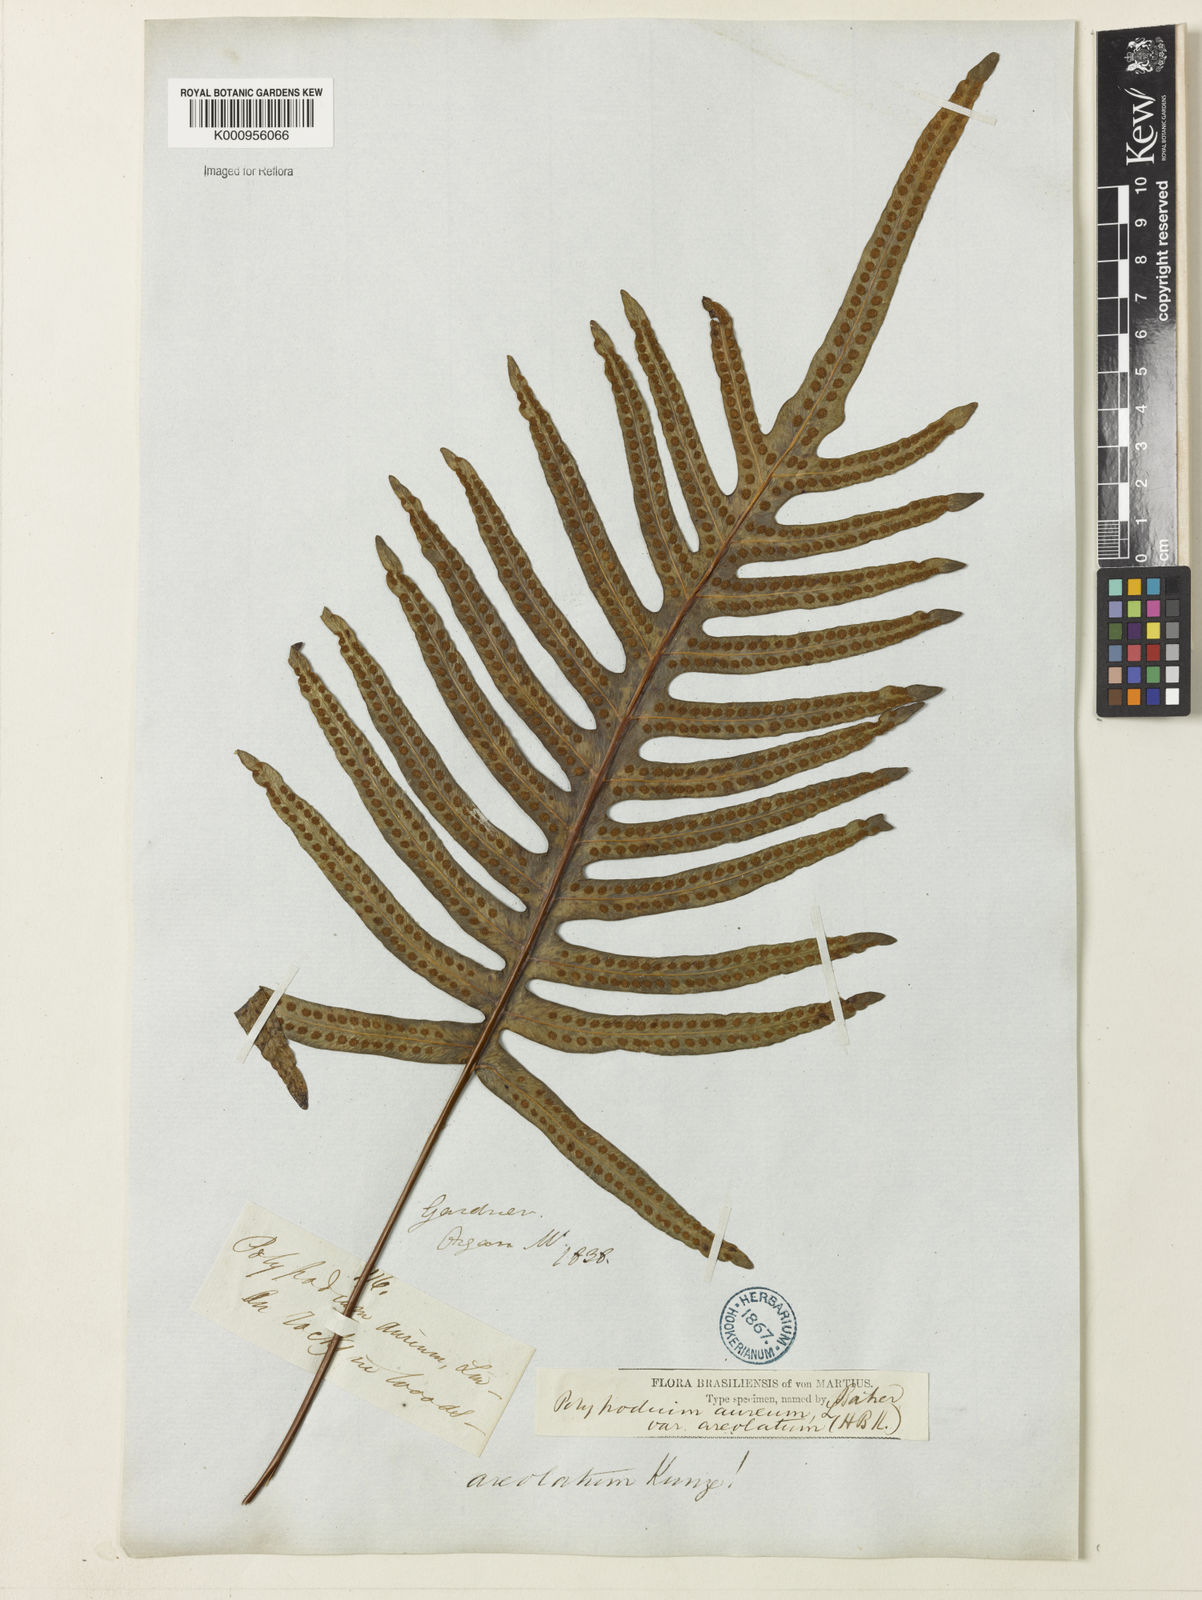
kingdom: Plantae
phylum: Tracheophyta
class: Polypodiopsida
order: Polypodiales
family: Polypodiaceae
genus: Phlebodium
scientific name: Phlebodium aureum
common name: Gold-foot fern
